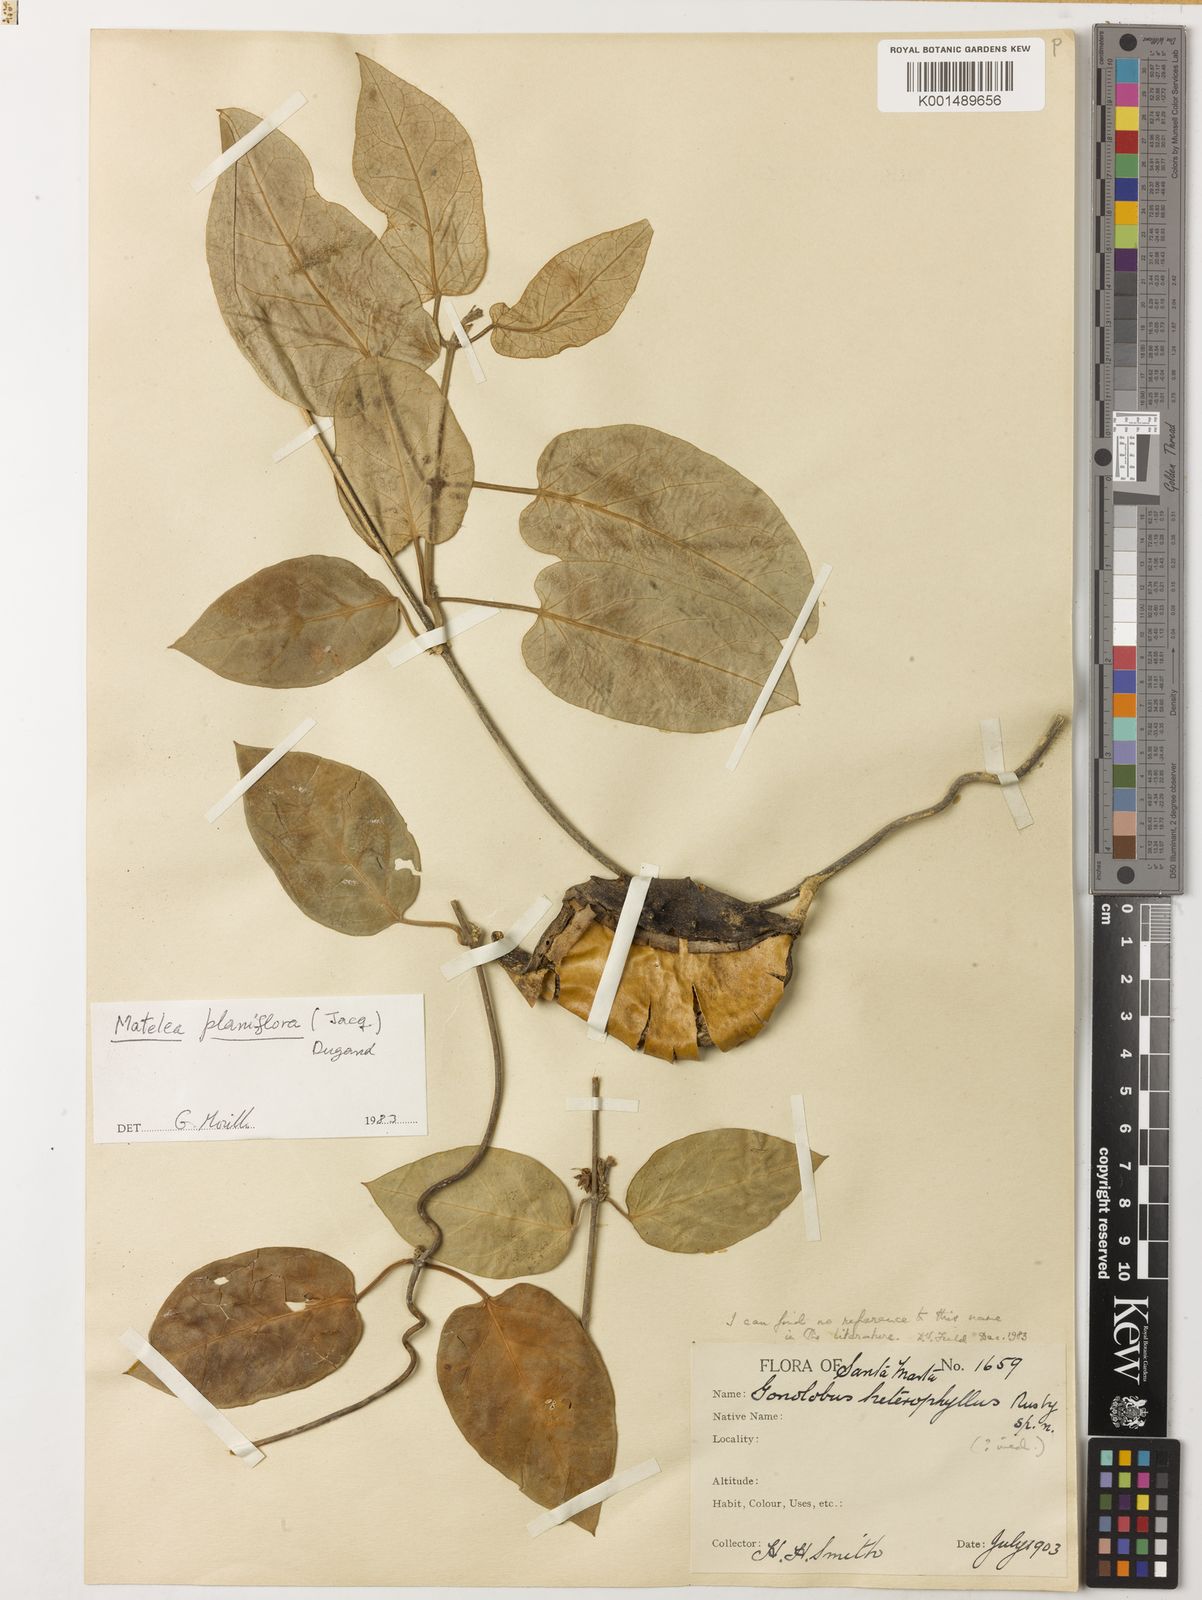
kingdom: Plantae
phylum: Tracheophyta
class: Magnoliopsida
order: Gentianales
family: Apocynaceae
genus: Atrostemma
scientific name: Atrostemma planiflorum
